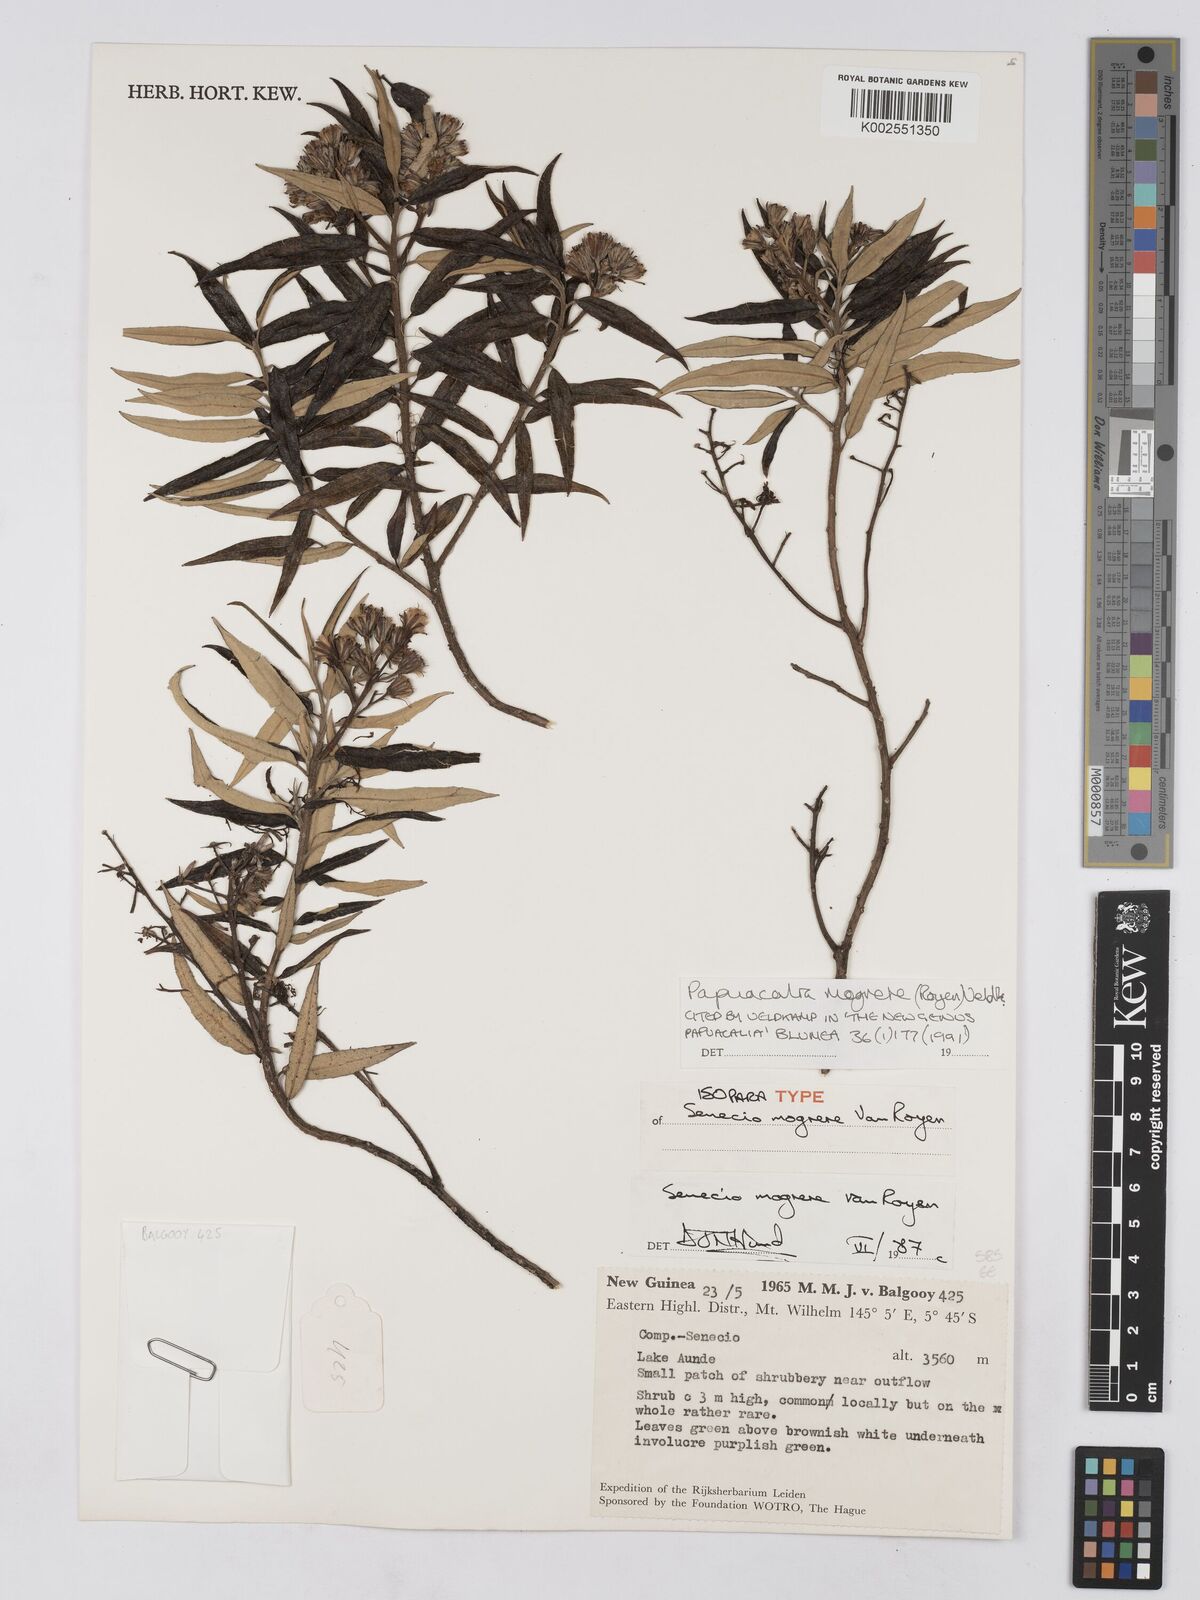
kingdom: Plantae
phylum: Tracheophyta
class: Magnoliopsida
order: Asterales
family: Asteraceae
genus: Papuacalia
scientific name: Papuacalia mogrere
